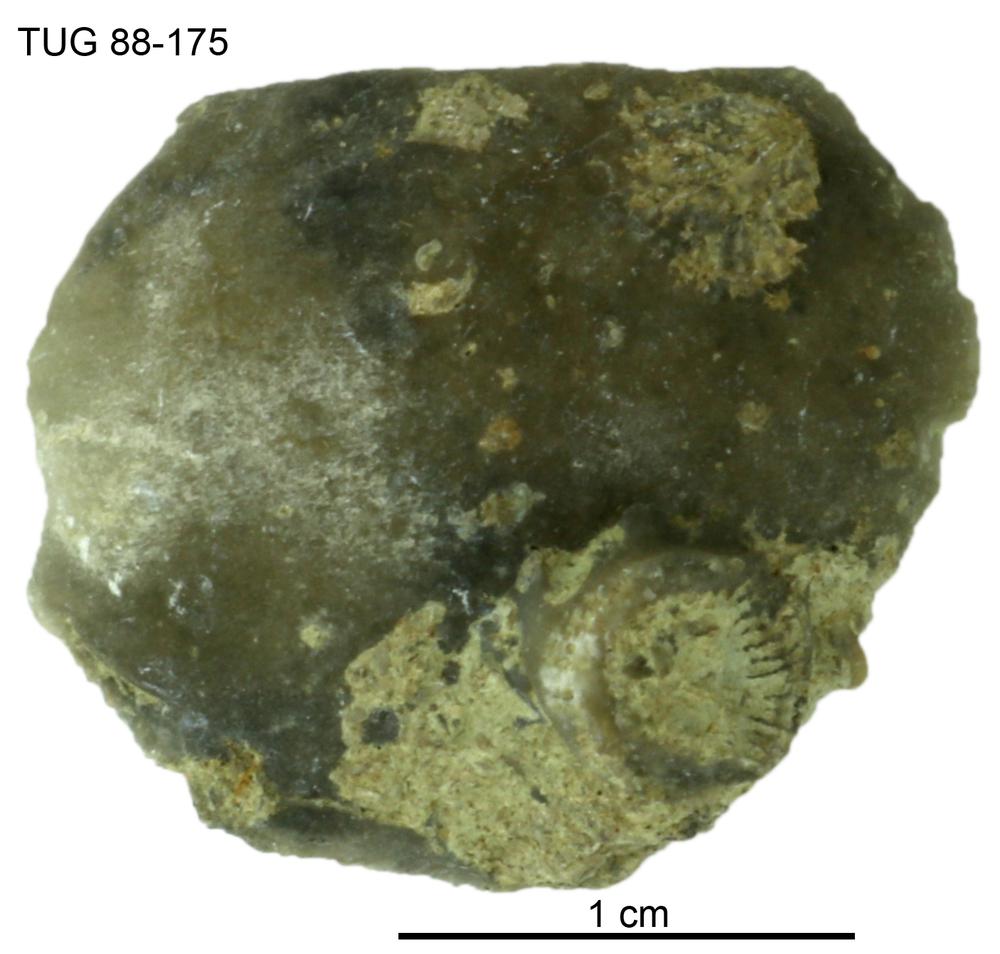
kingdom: Animalia
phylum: Brachiopoda
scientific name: Brachiopoda
